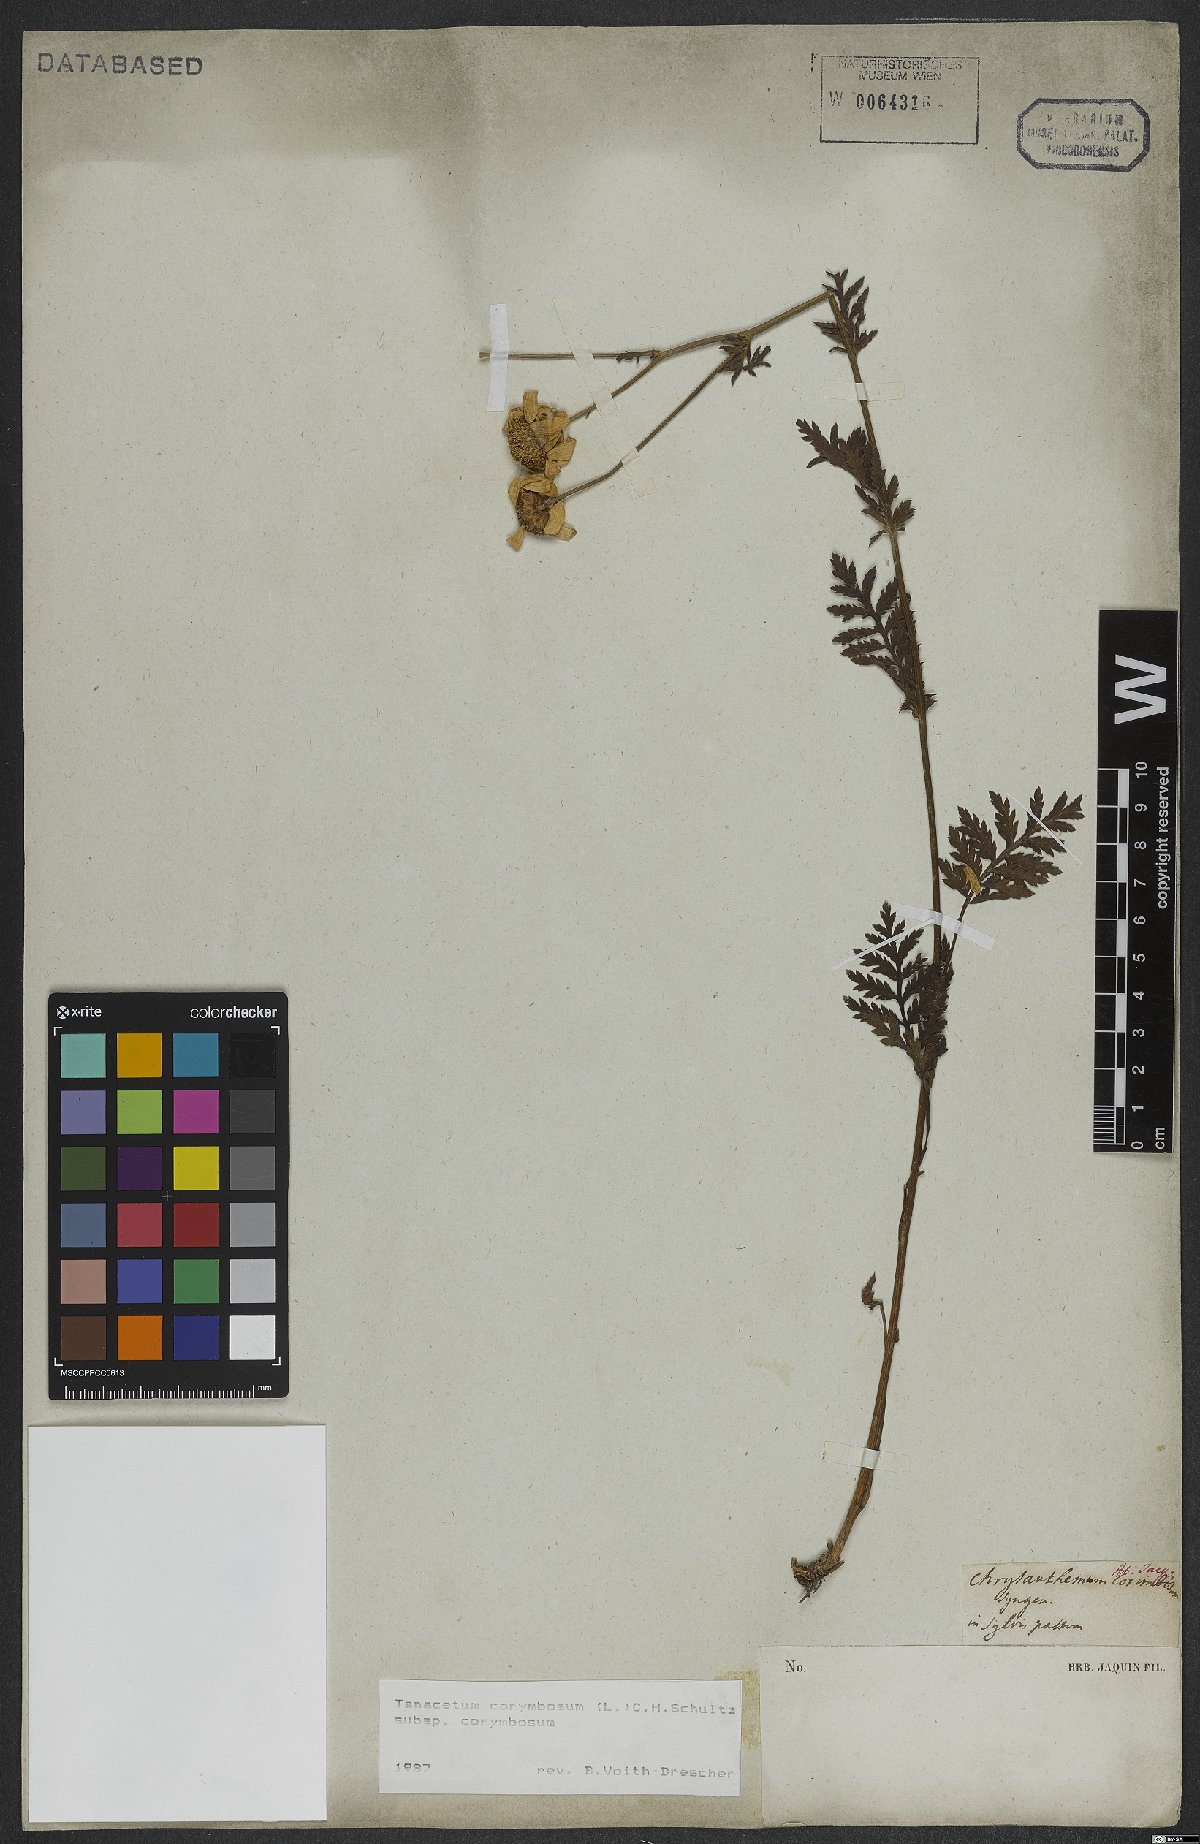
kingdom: Plantae
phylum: Tracheophyta
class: Magnoliopsida
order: Asterales
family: Asteraceae
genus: Tanacetum
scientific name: Tanacetum corymbosum
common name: Scentless feverfew
